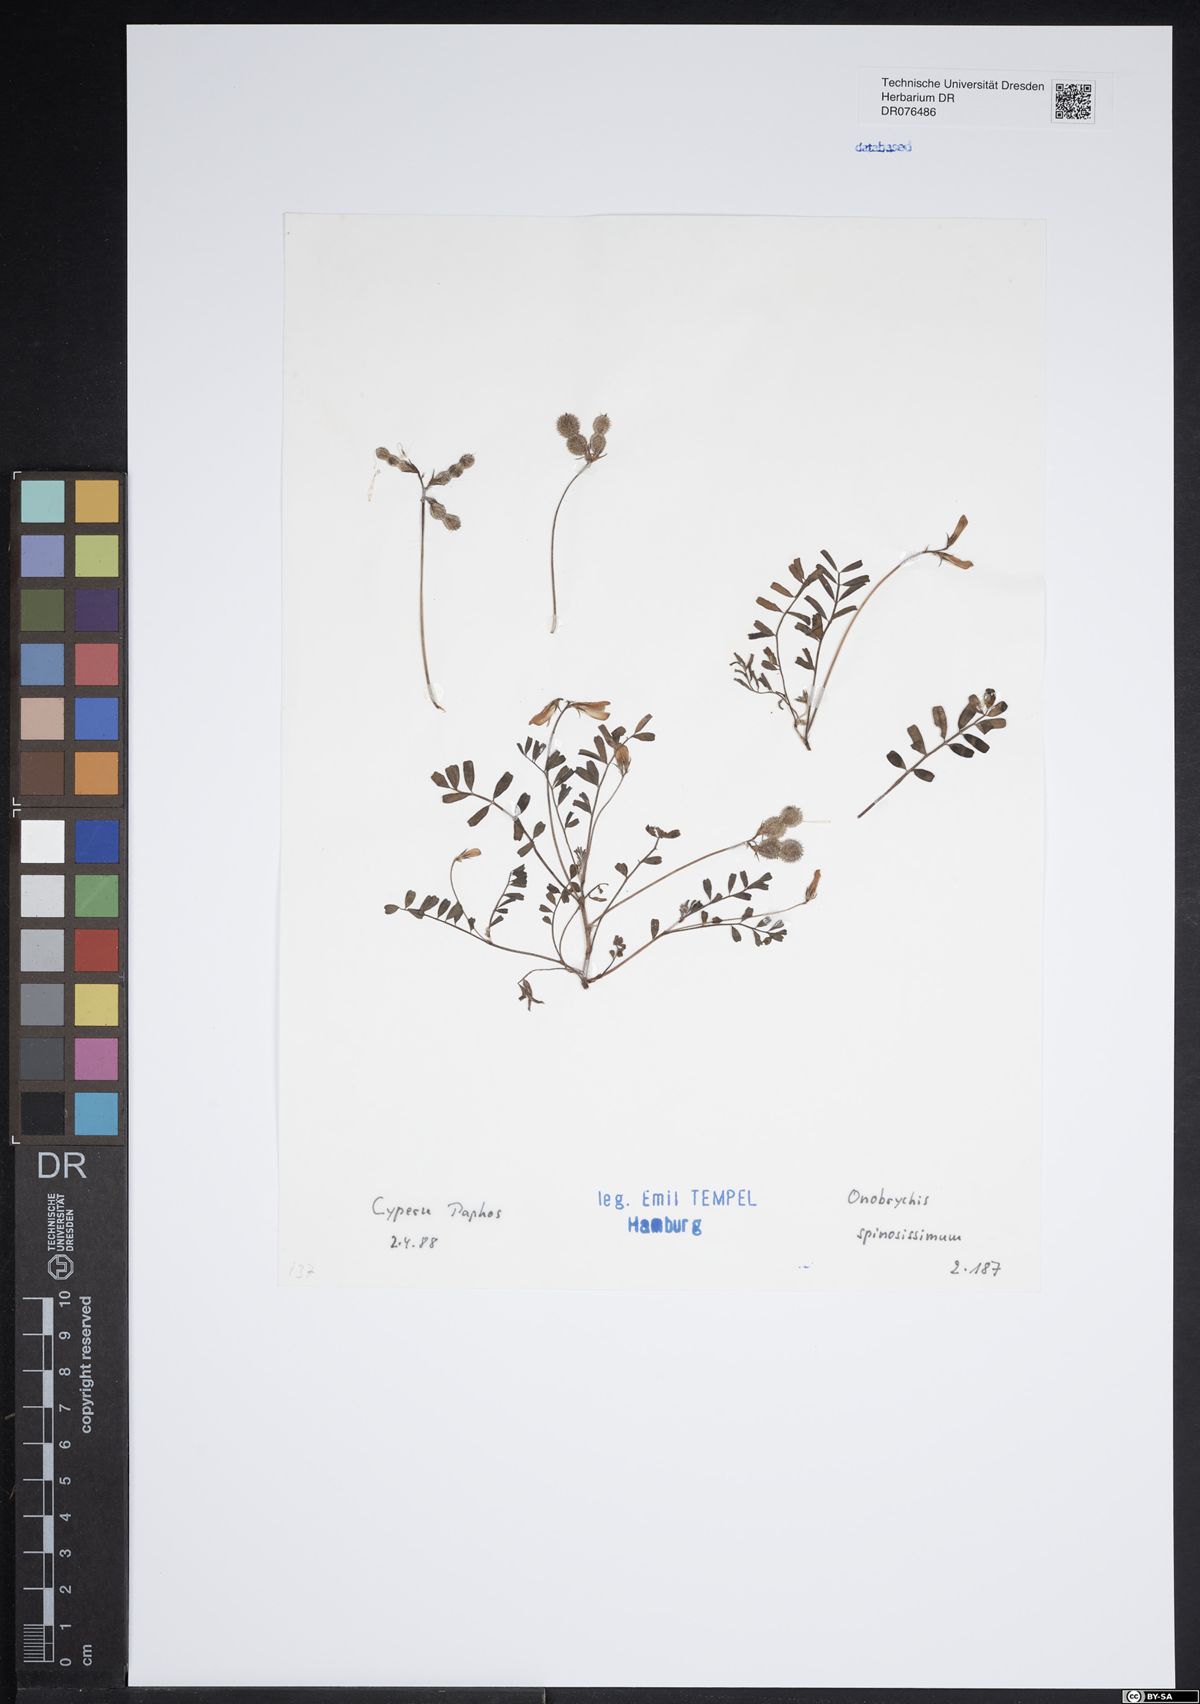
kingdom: Plantae
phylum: Tracheophyta
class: Magnoliopsida
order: Fabales
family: Fabaceae
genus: Onobrychis
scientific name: Onobrychis spinosissima
